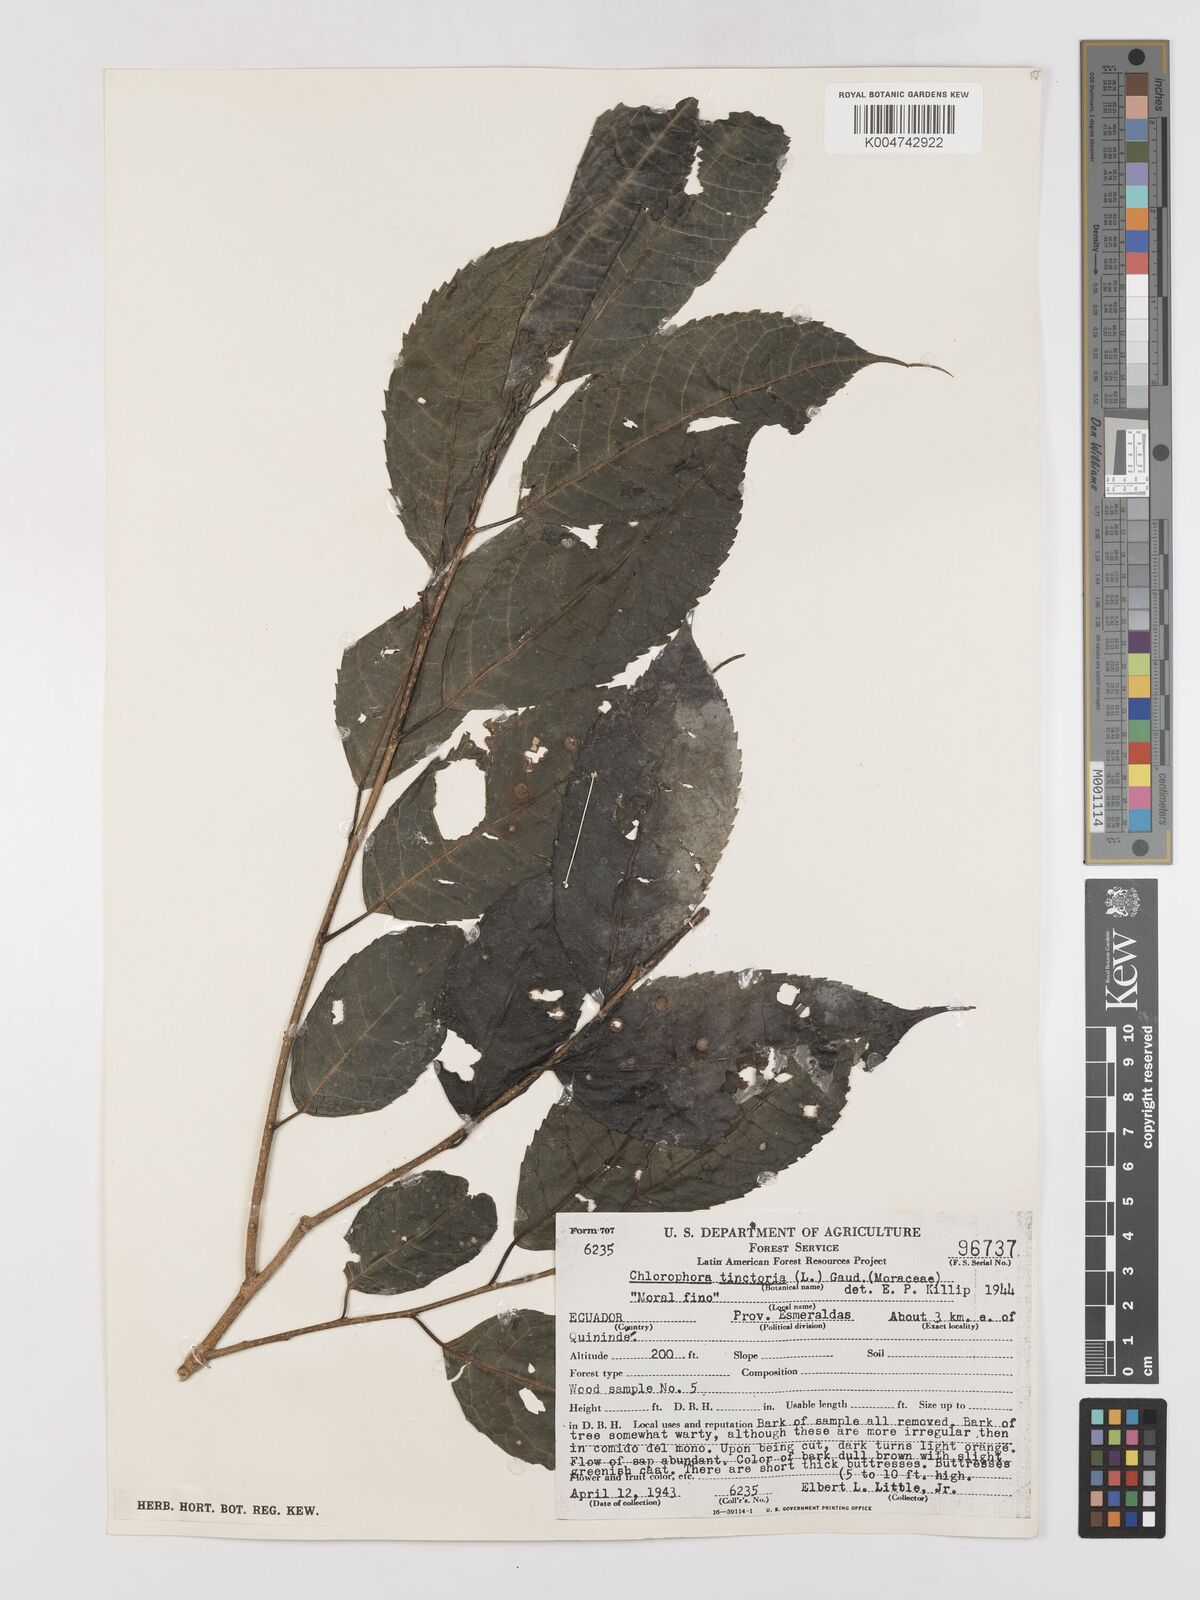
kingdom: Plantae
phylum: Tracheophyta
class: Magnoliopsida
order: Rosales
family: Moraceae
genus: Maclura
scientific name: Maclura tinctoria
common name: Old fustic
